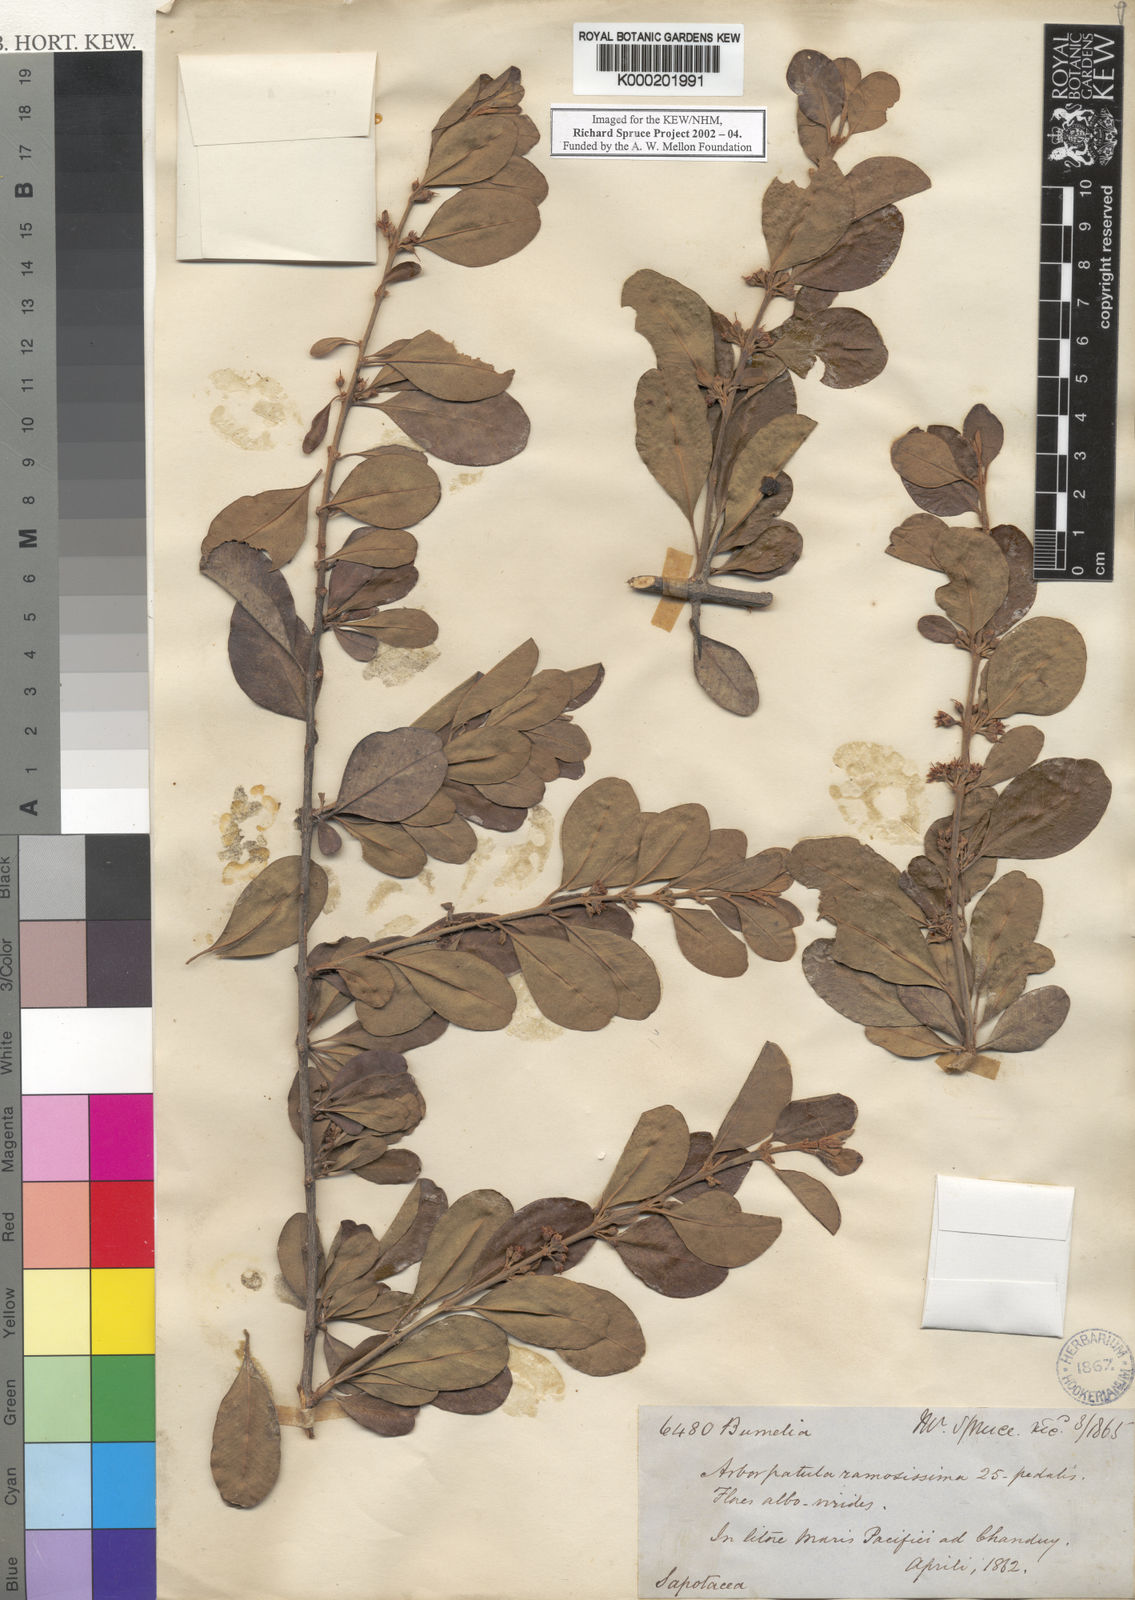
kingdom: Plantae
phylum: Tracheophyta
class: Magnoliopsida
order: Ericales
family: Sapotaceae
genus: Sideroxylon
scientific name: Sideroxylon obtusifolium
